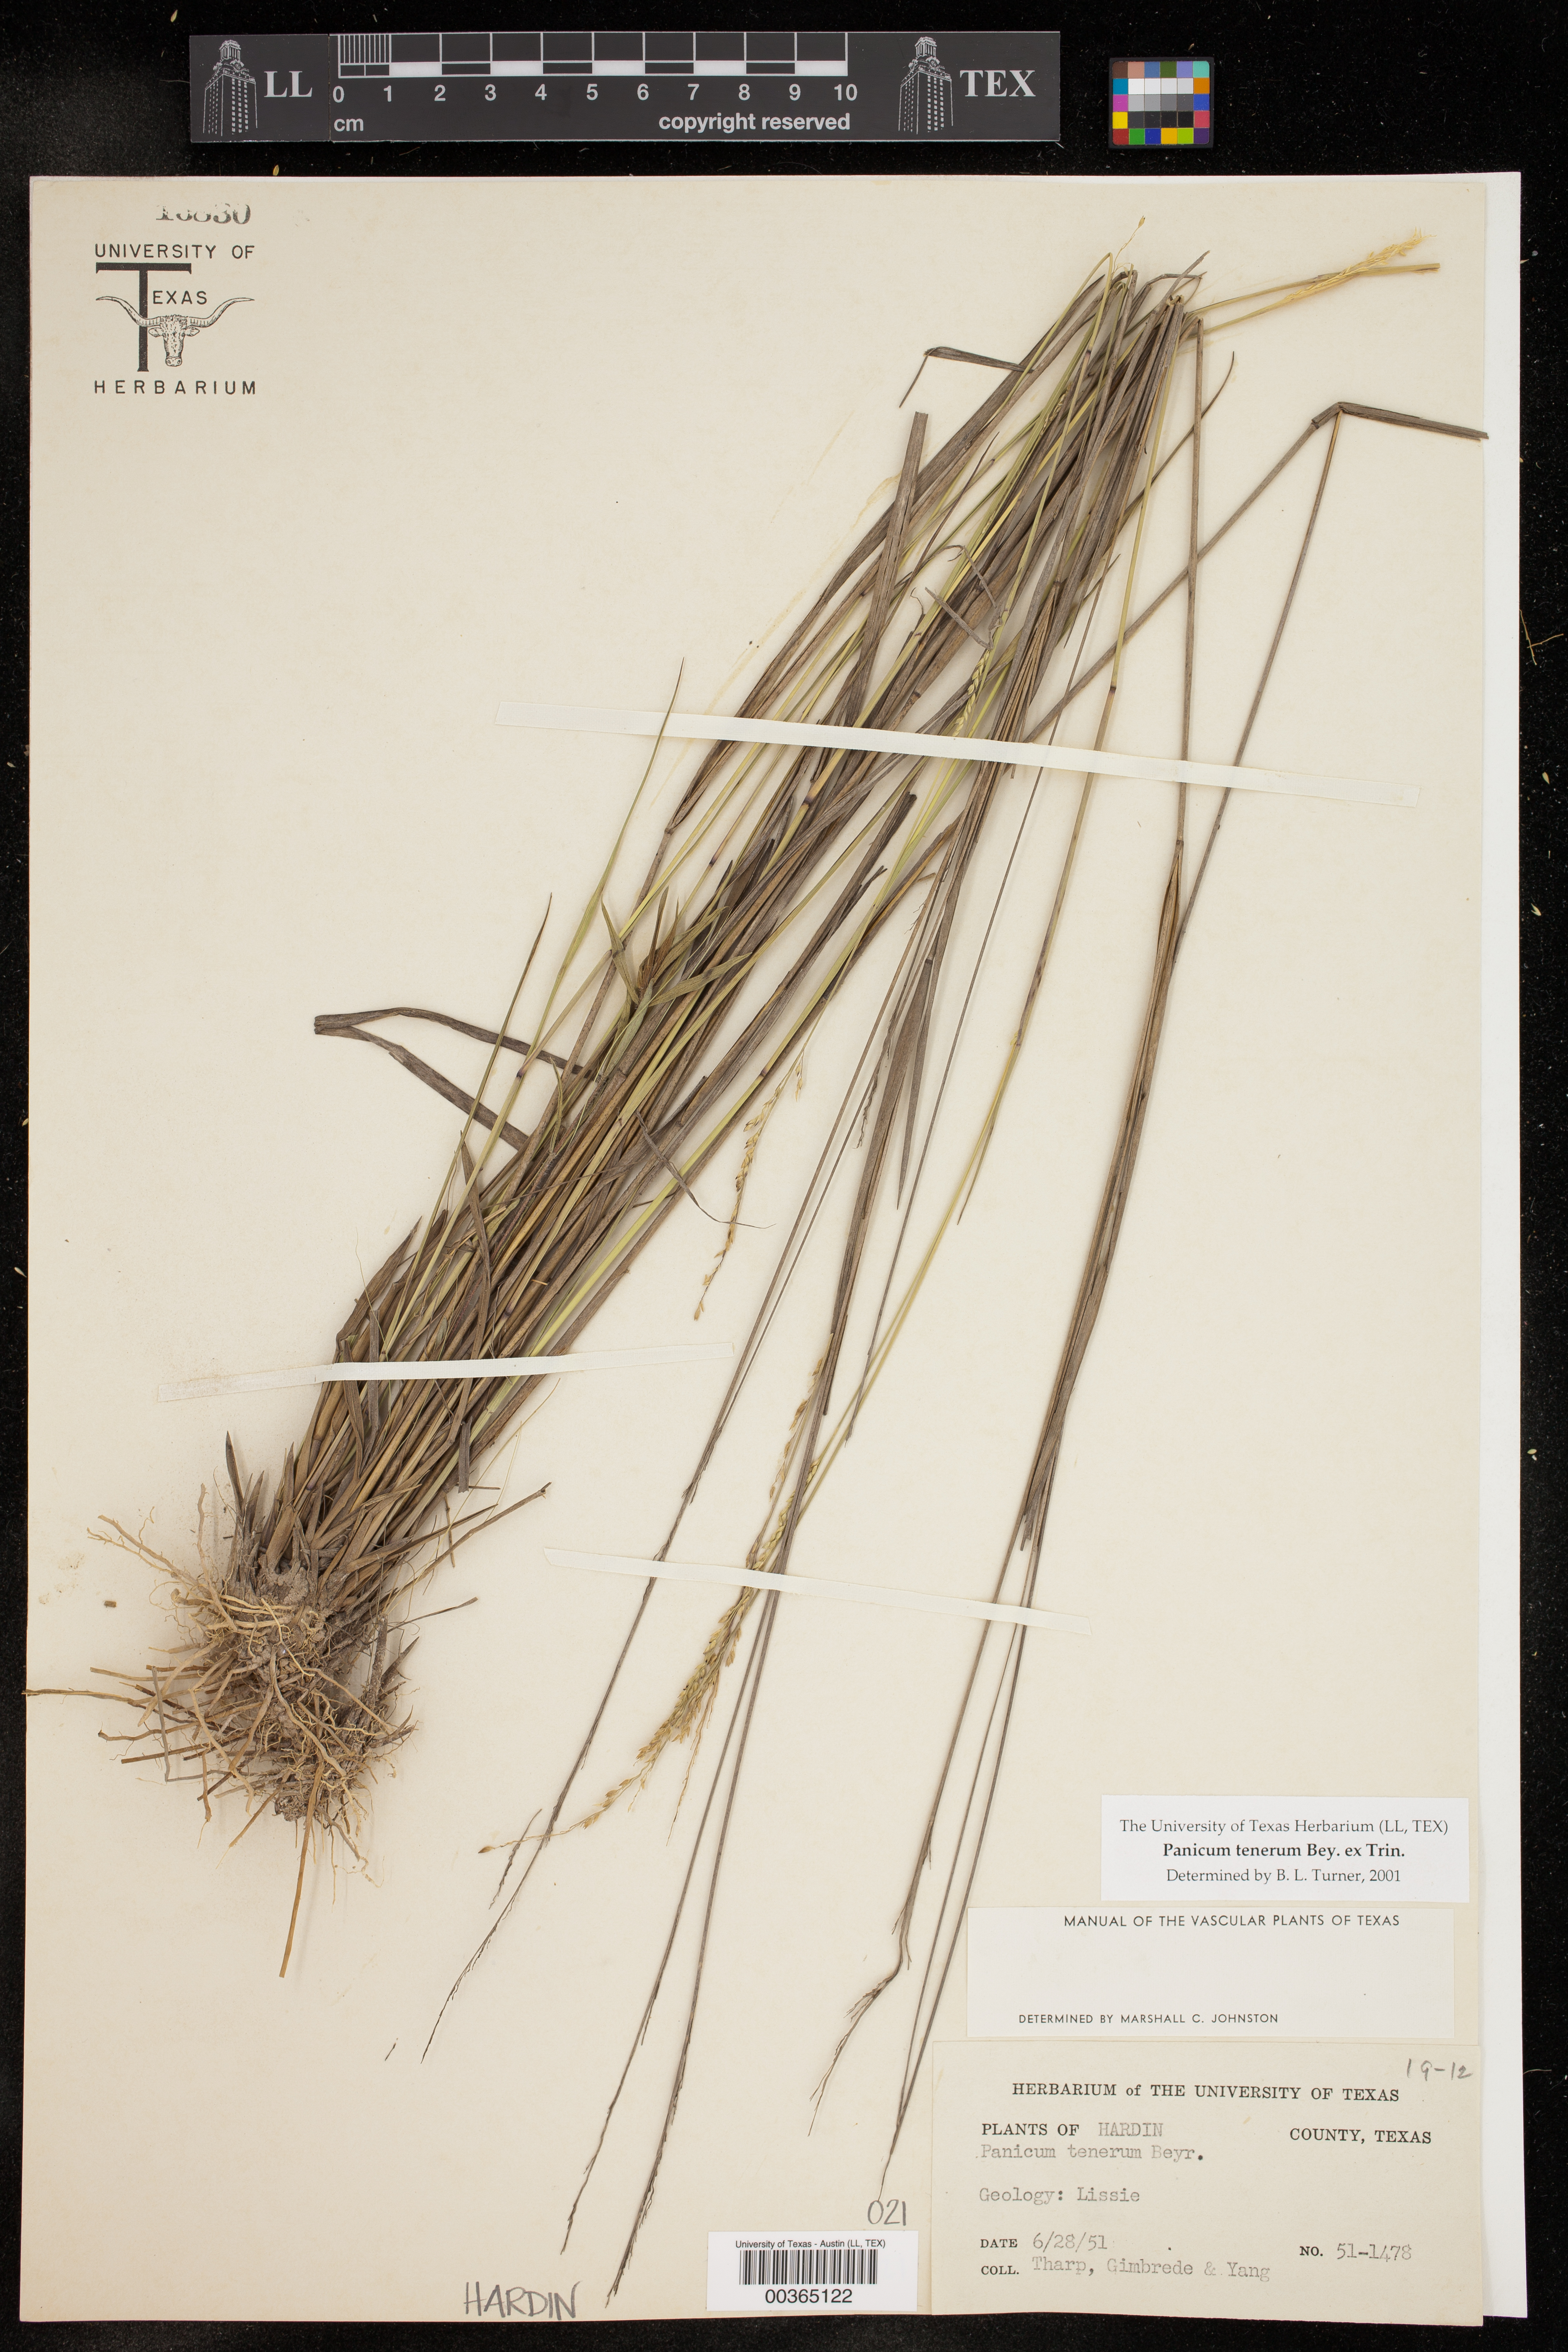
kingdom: Plantae
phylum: Tracheophyta
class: Liliopsida
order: Poales
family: Poaceae
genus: Coleataenia
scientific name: Coleataenia tenera
